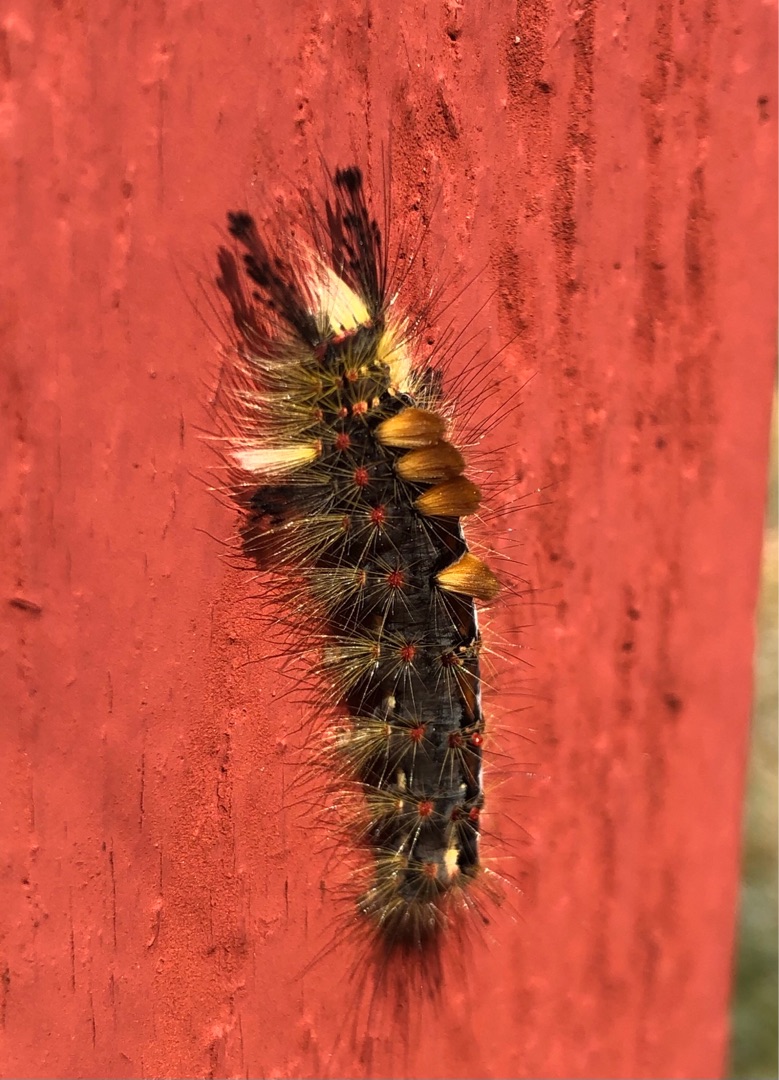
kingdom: Animalia
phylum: Arthropoda
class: Insecta
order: Lepidoptera
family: Erebidae
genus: Orgyia
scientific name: Orgyia antiqua
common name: Lille penselspinder
